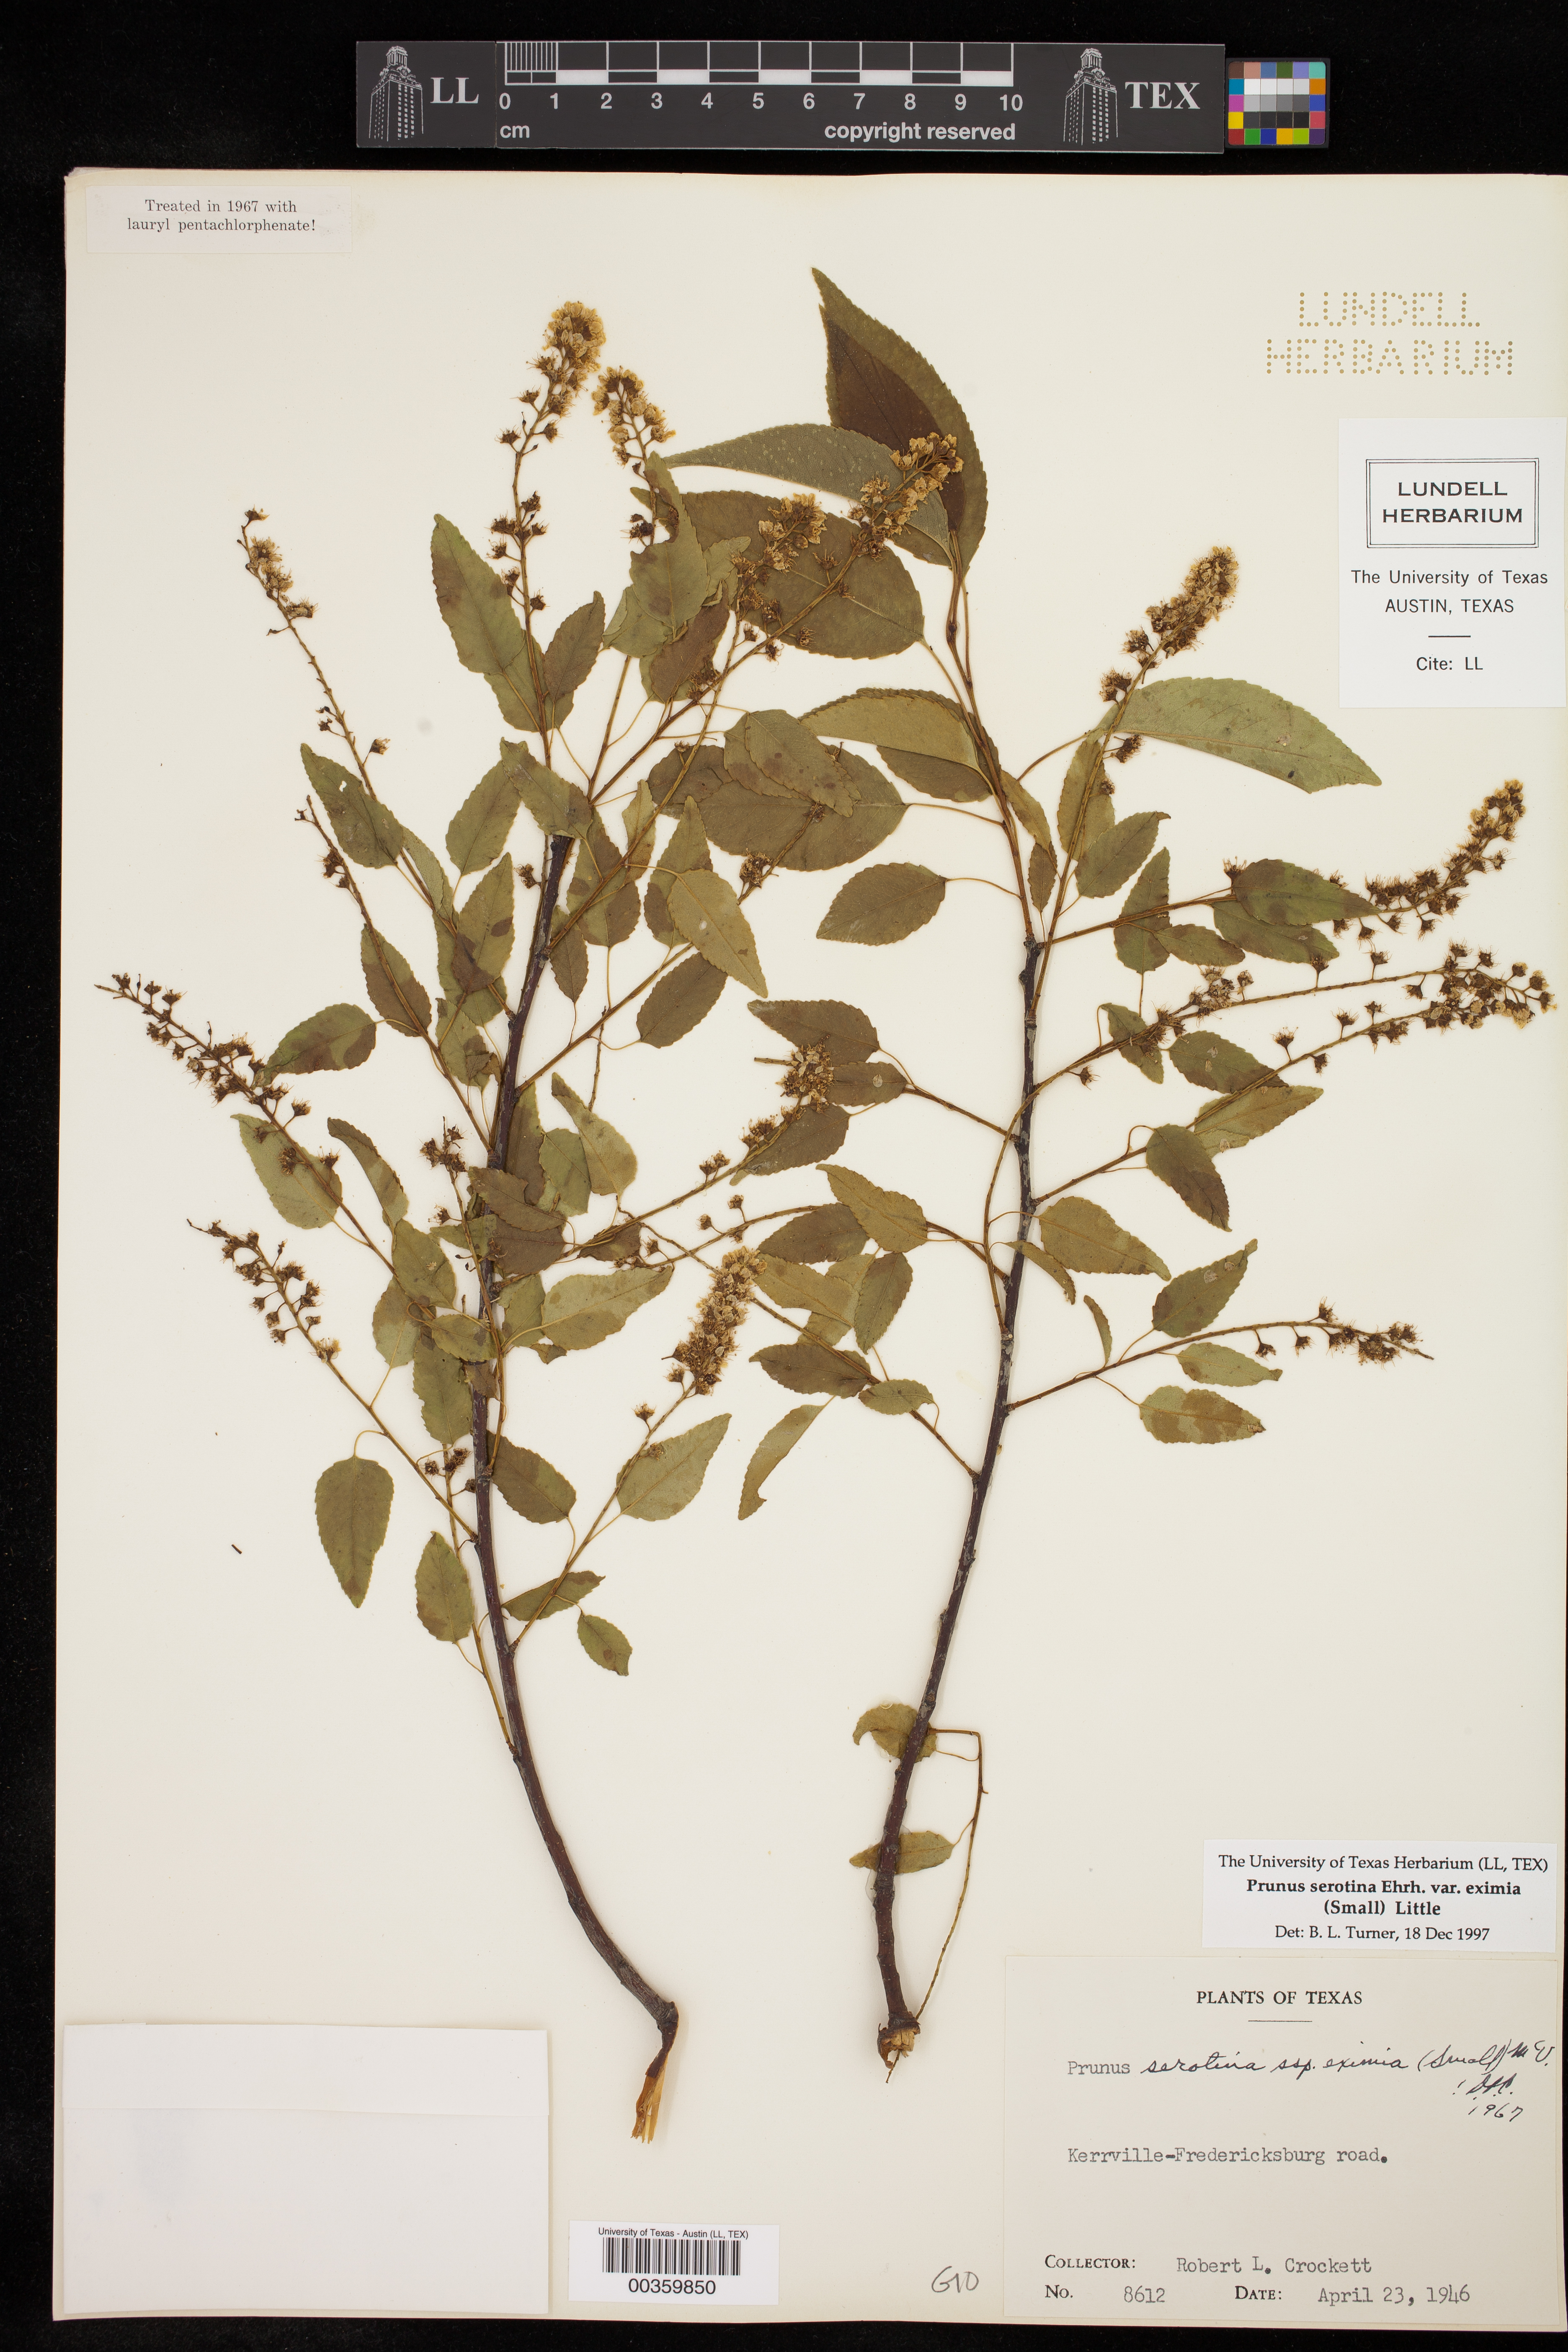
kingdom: Plantae
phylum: Tracheophyta
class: Magnoliopsida
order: Rosales
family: Rosaceae
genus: Prunus
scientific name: Prunus serotina
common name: Black cherry
